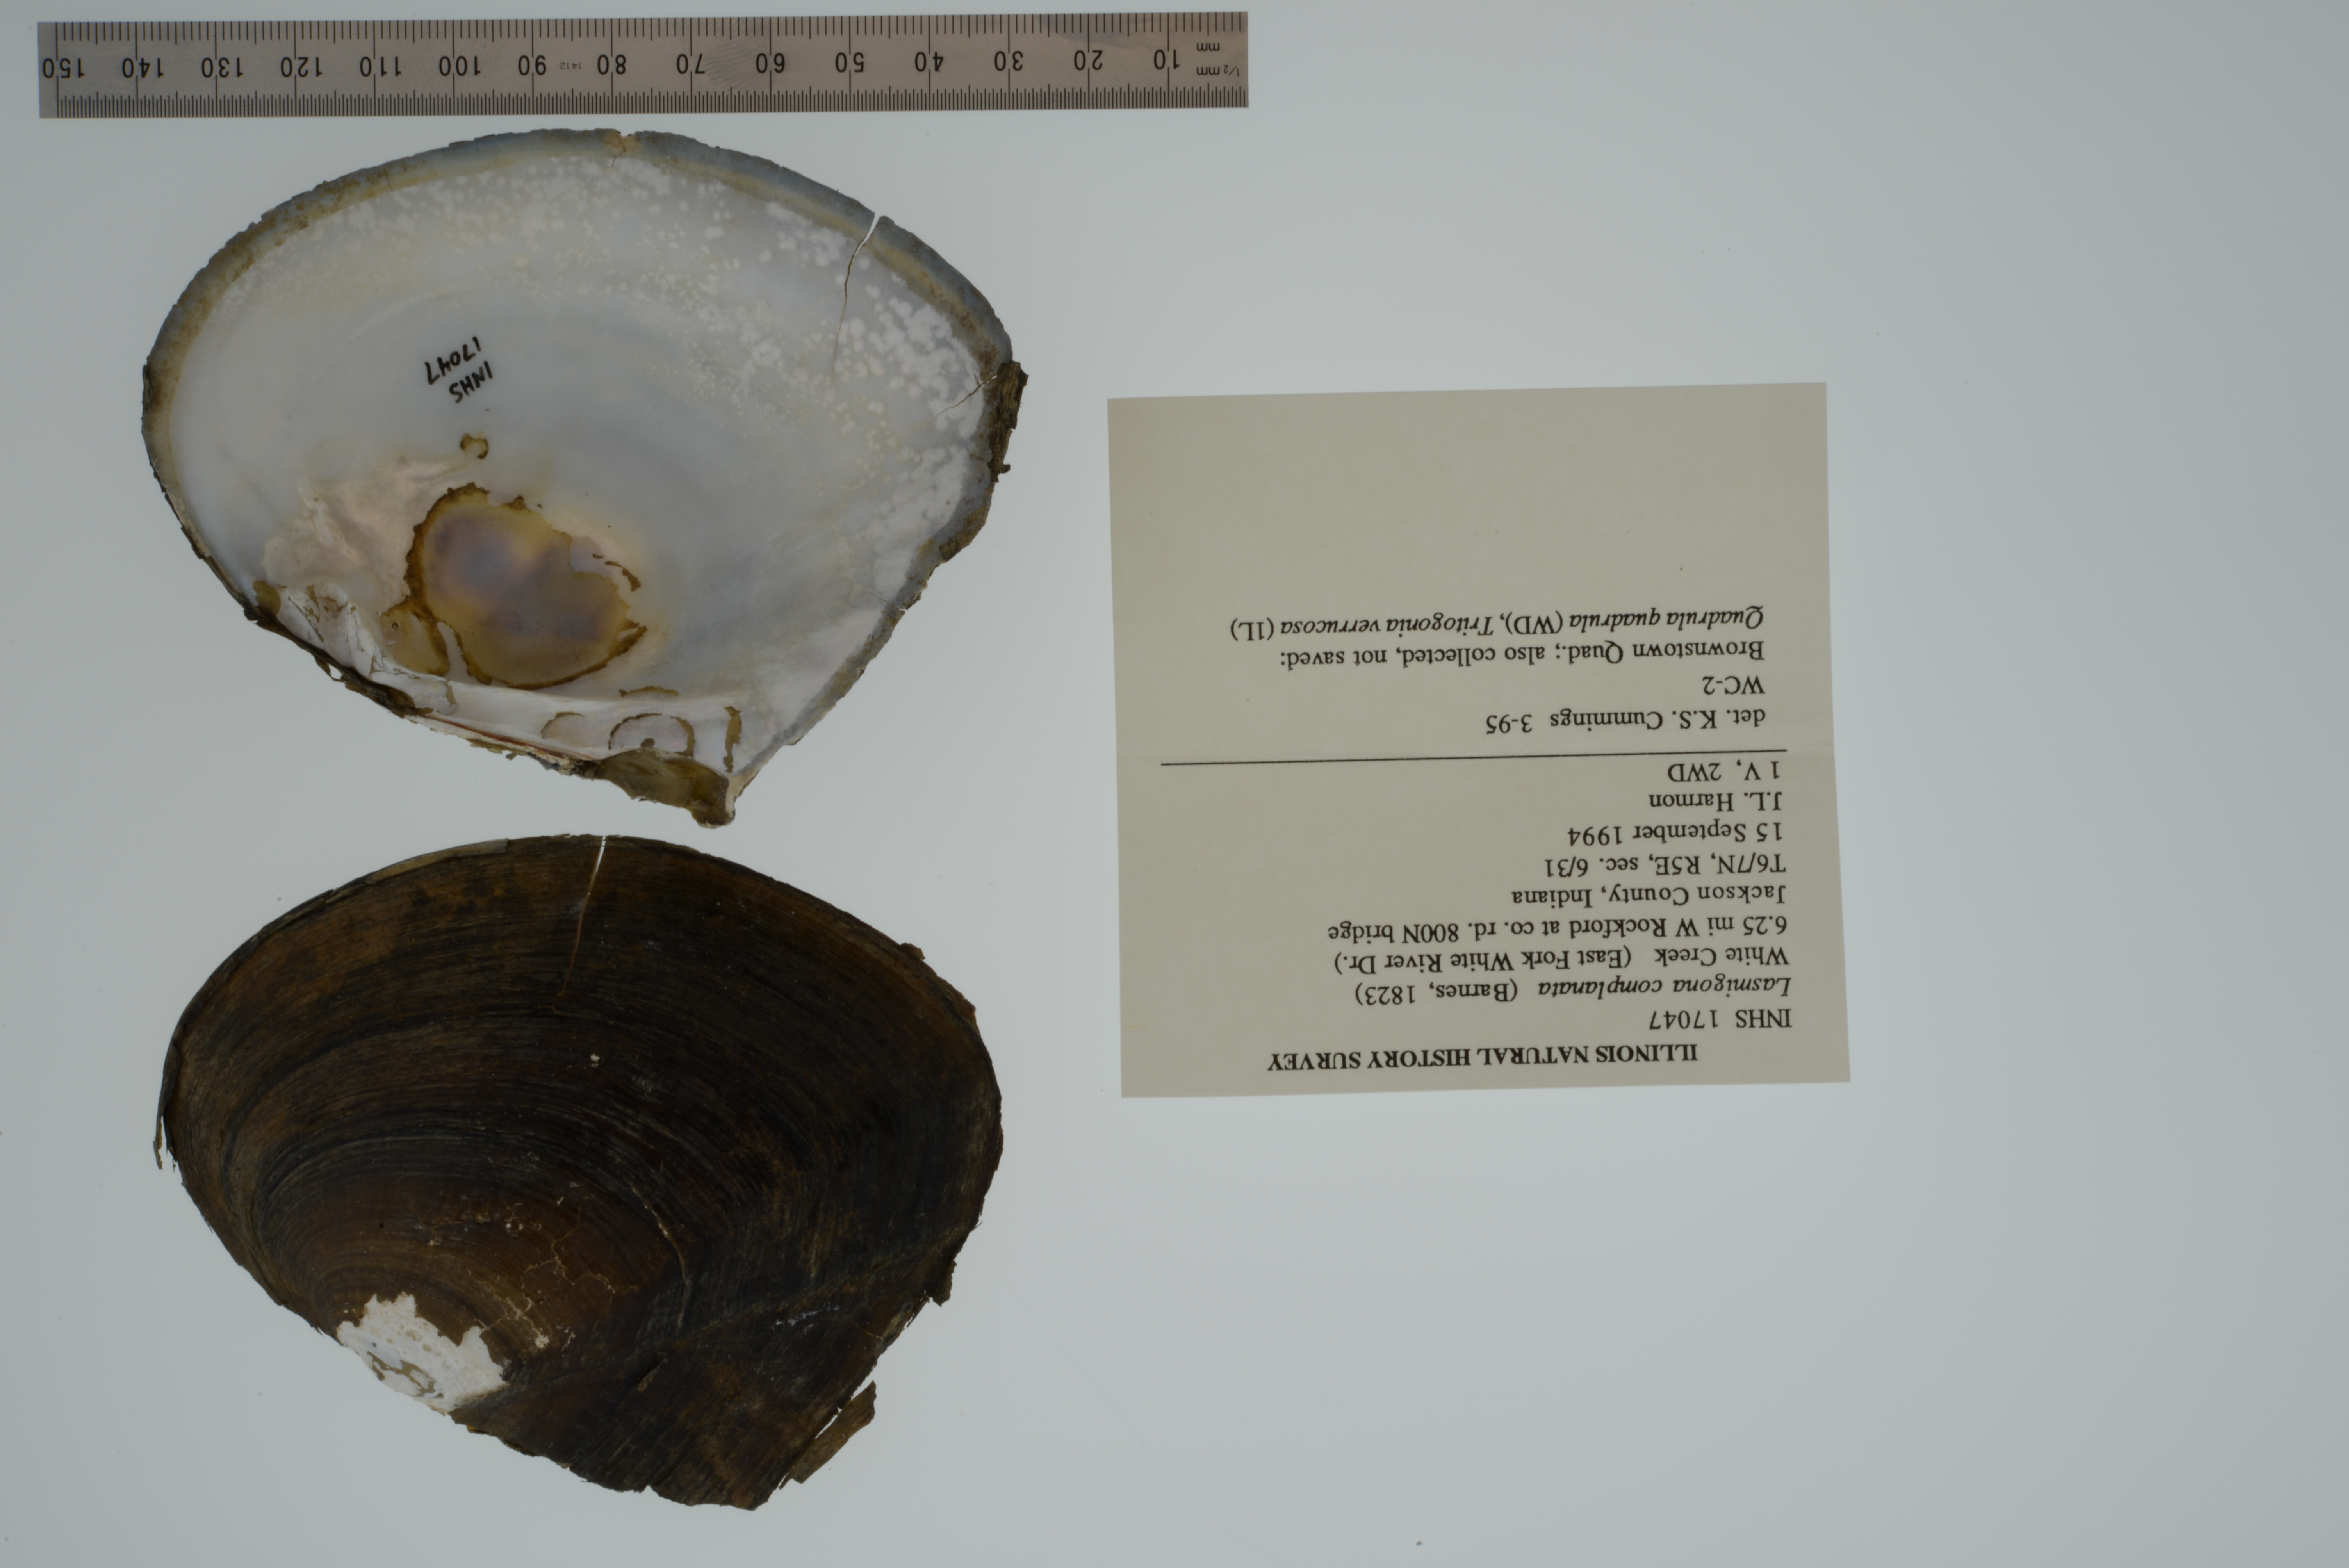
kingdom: Animalia
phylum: Mollusca
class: Bivalvia
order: Unionida
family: Unionidae
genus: Lasmigona
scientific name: Lasmigona complanata
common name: White heelsplitter
